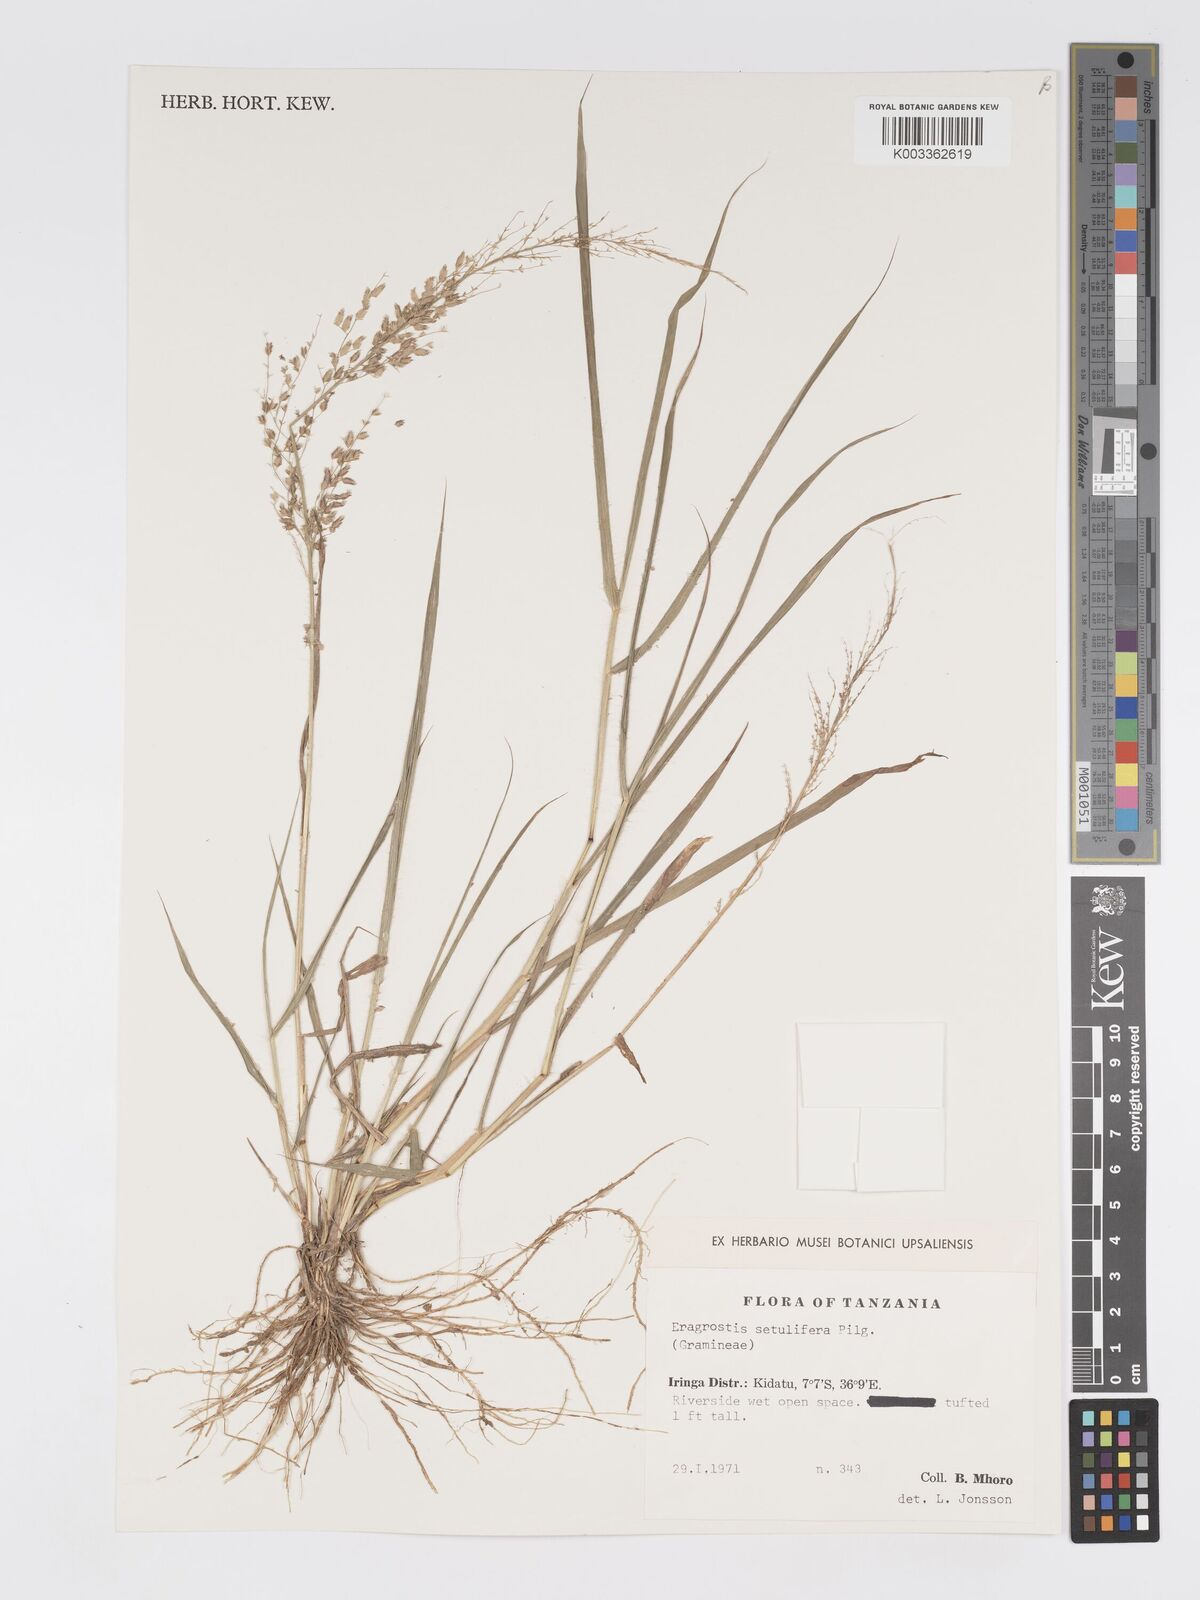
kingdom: Plantae
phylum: Tracheophyta
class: Liliopsida
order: Poales
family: Poaceae
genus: Eragrostis
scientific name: Eragrostis setulifera
